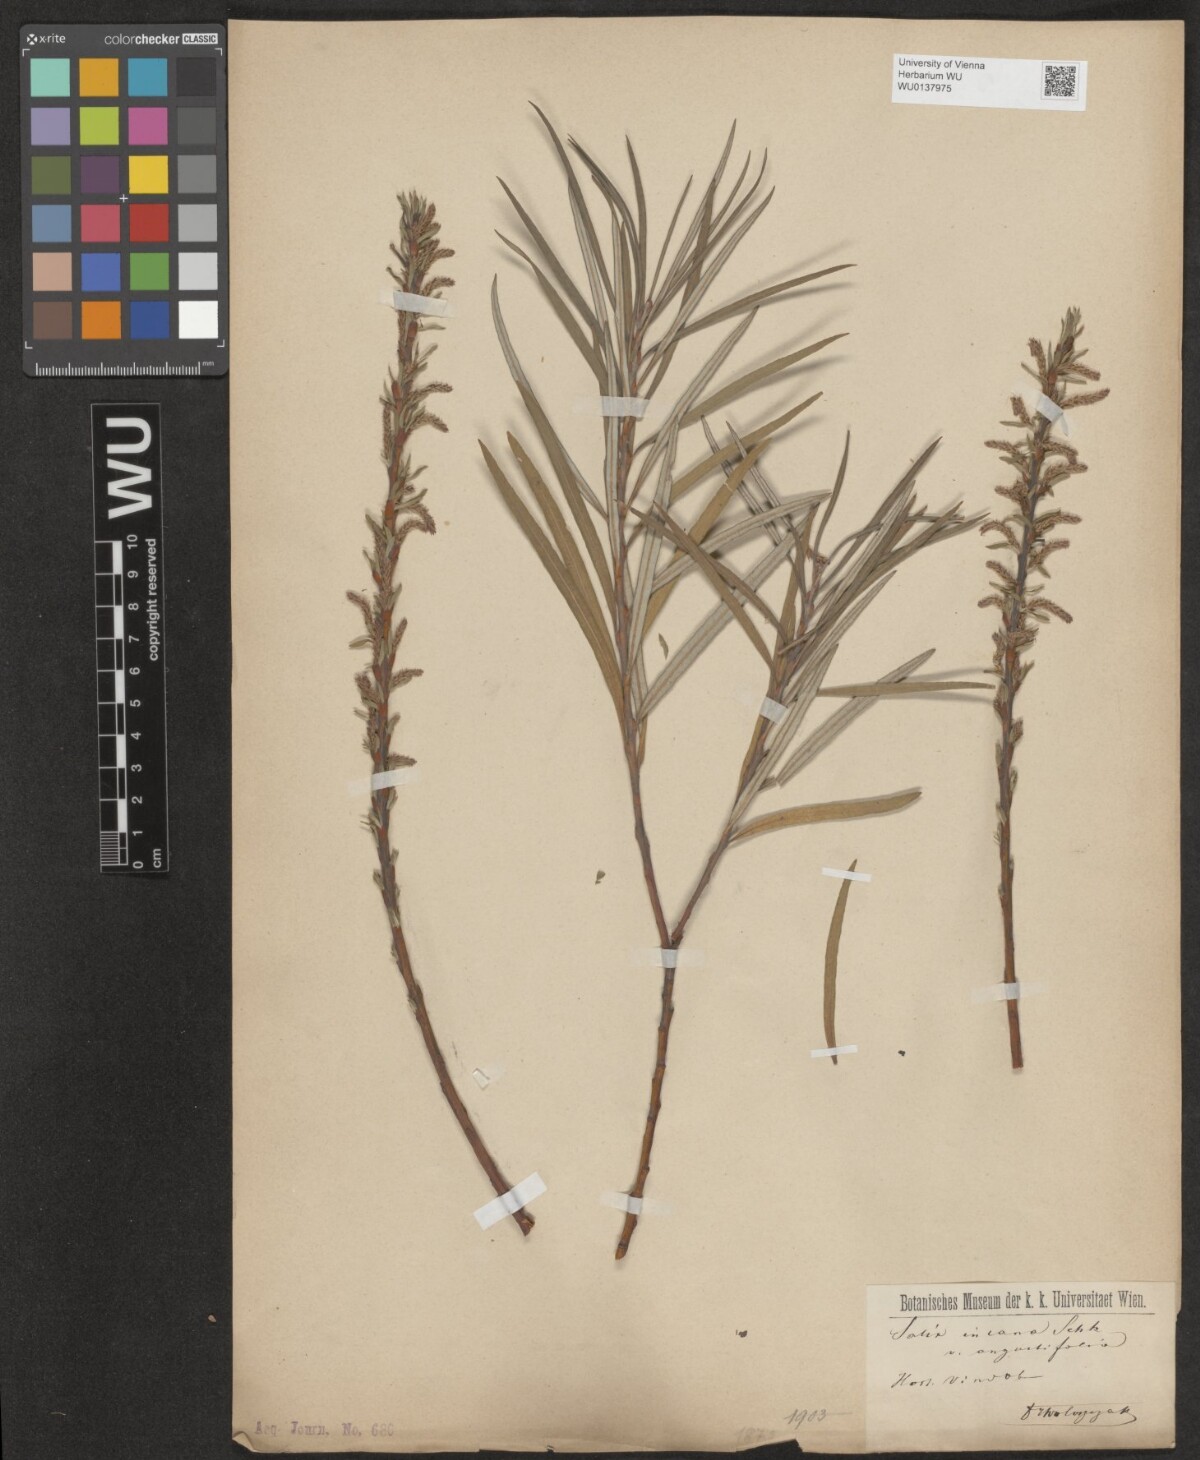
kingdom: Plantae
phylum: Tracheophyta
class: Magnoliopsida
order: Malpighiales
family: Salicaceae
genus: Salix
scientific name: Salix eleagnos
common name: Elaeagnus willow
